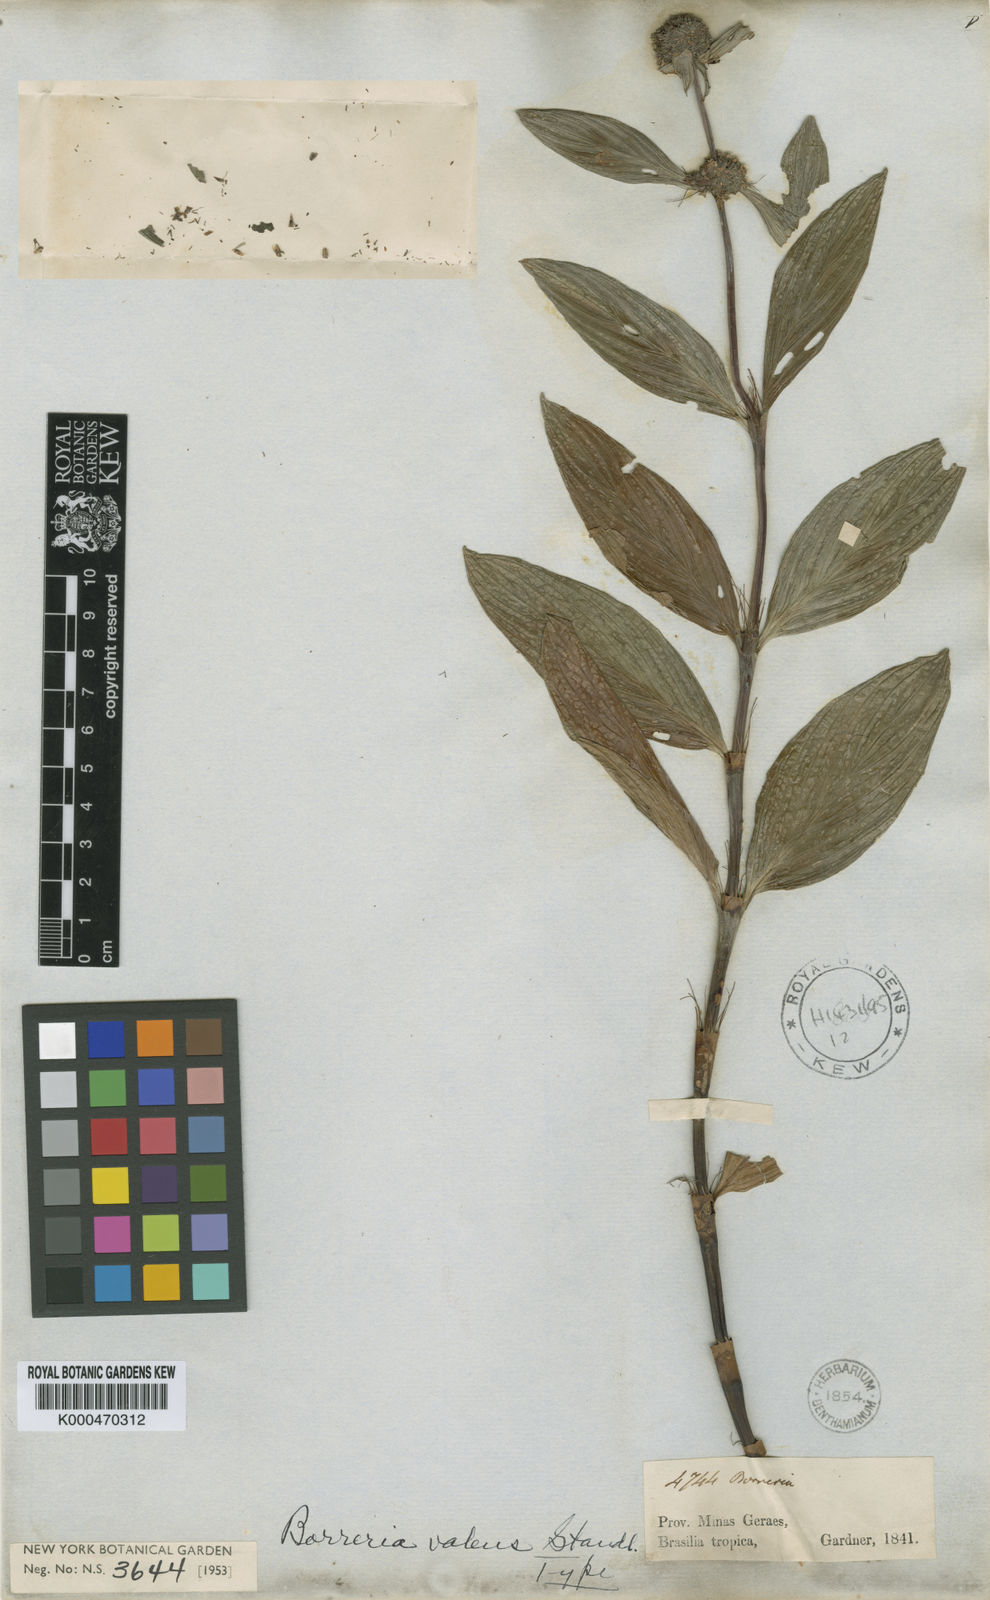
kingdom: Plantae
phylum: Tracheophyta
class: Magnoliopsida
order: Gentianales
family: Rubiaceae
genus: Spermacoce
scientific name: Spermacoce remota
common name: Woodland false buttonweed
